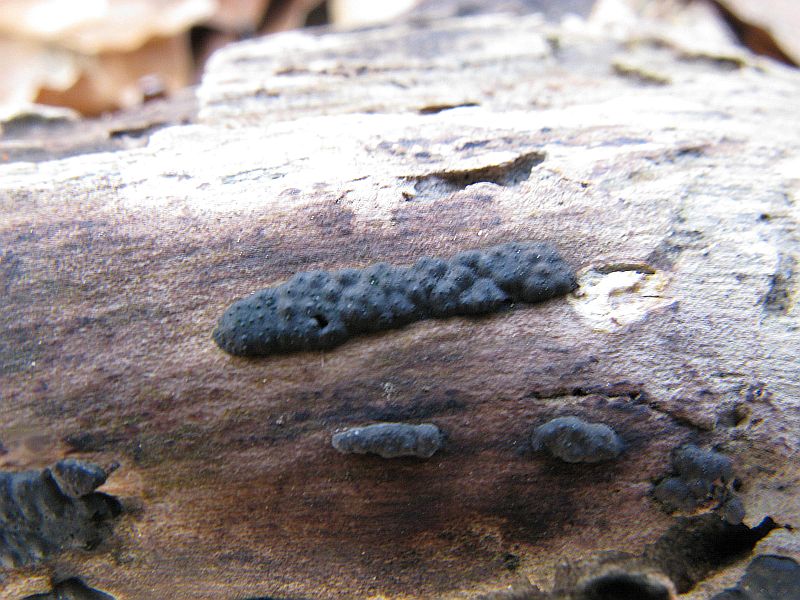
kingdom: Fungi
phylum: Ascomycota
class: Sordariomycetes
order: Xylariales
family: Xylariaceae
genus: Nemania
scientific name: Nemania serpens
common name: almindelig kuldyne
